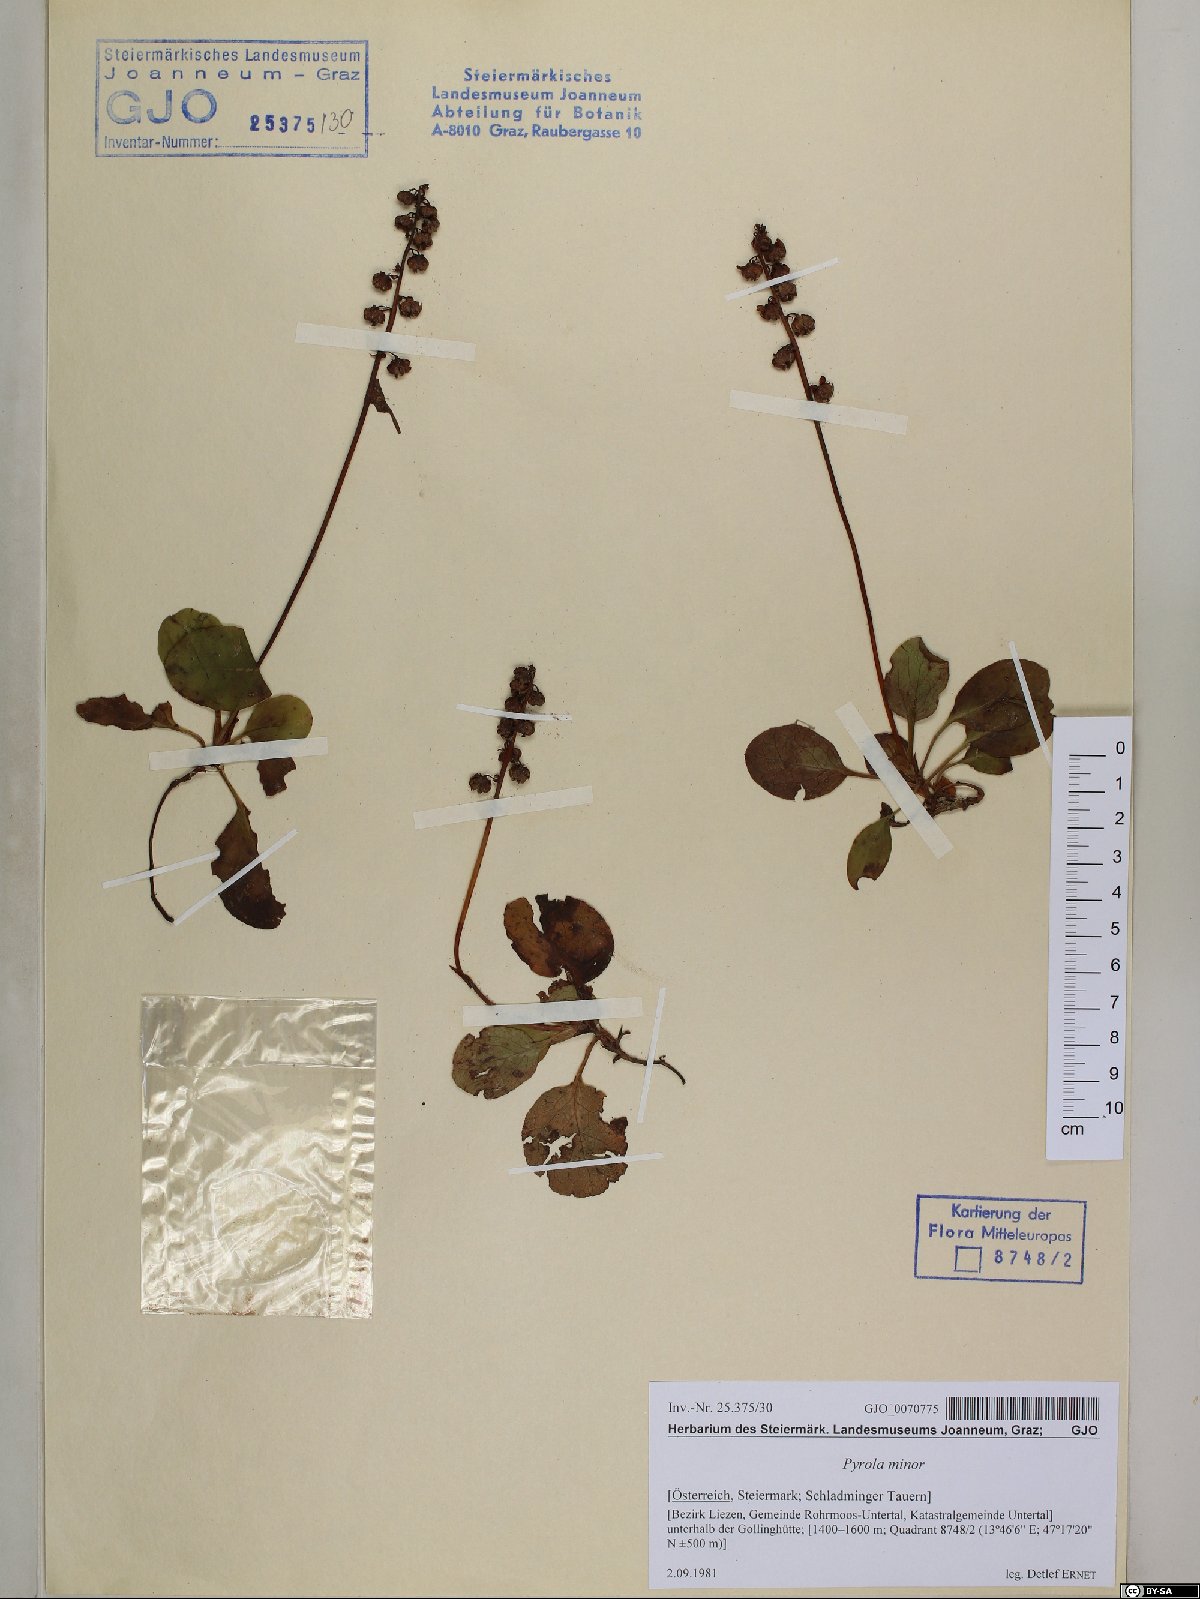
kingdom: Plantae
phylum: Tracheophyta
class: Magnoliopsida
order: Ericales
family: Ericaceae
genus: Pyrola
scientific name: Pyrola minor
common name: Common wintergreen
